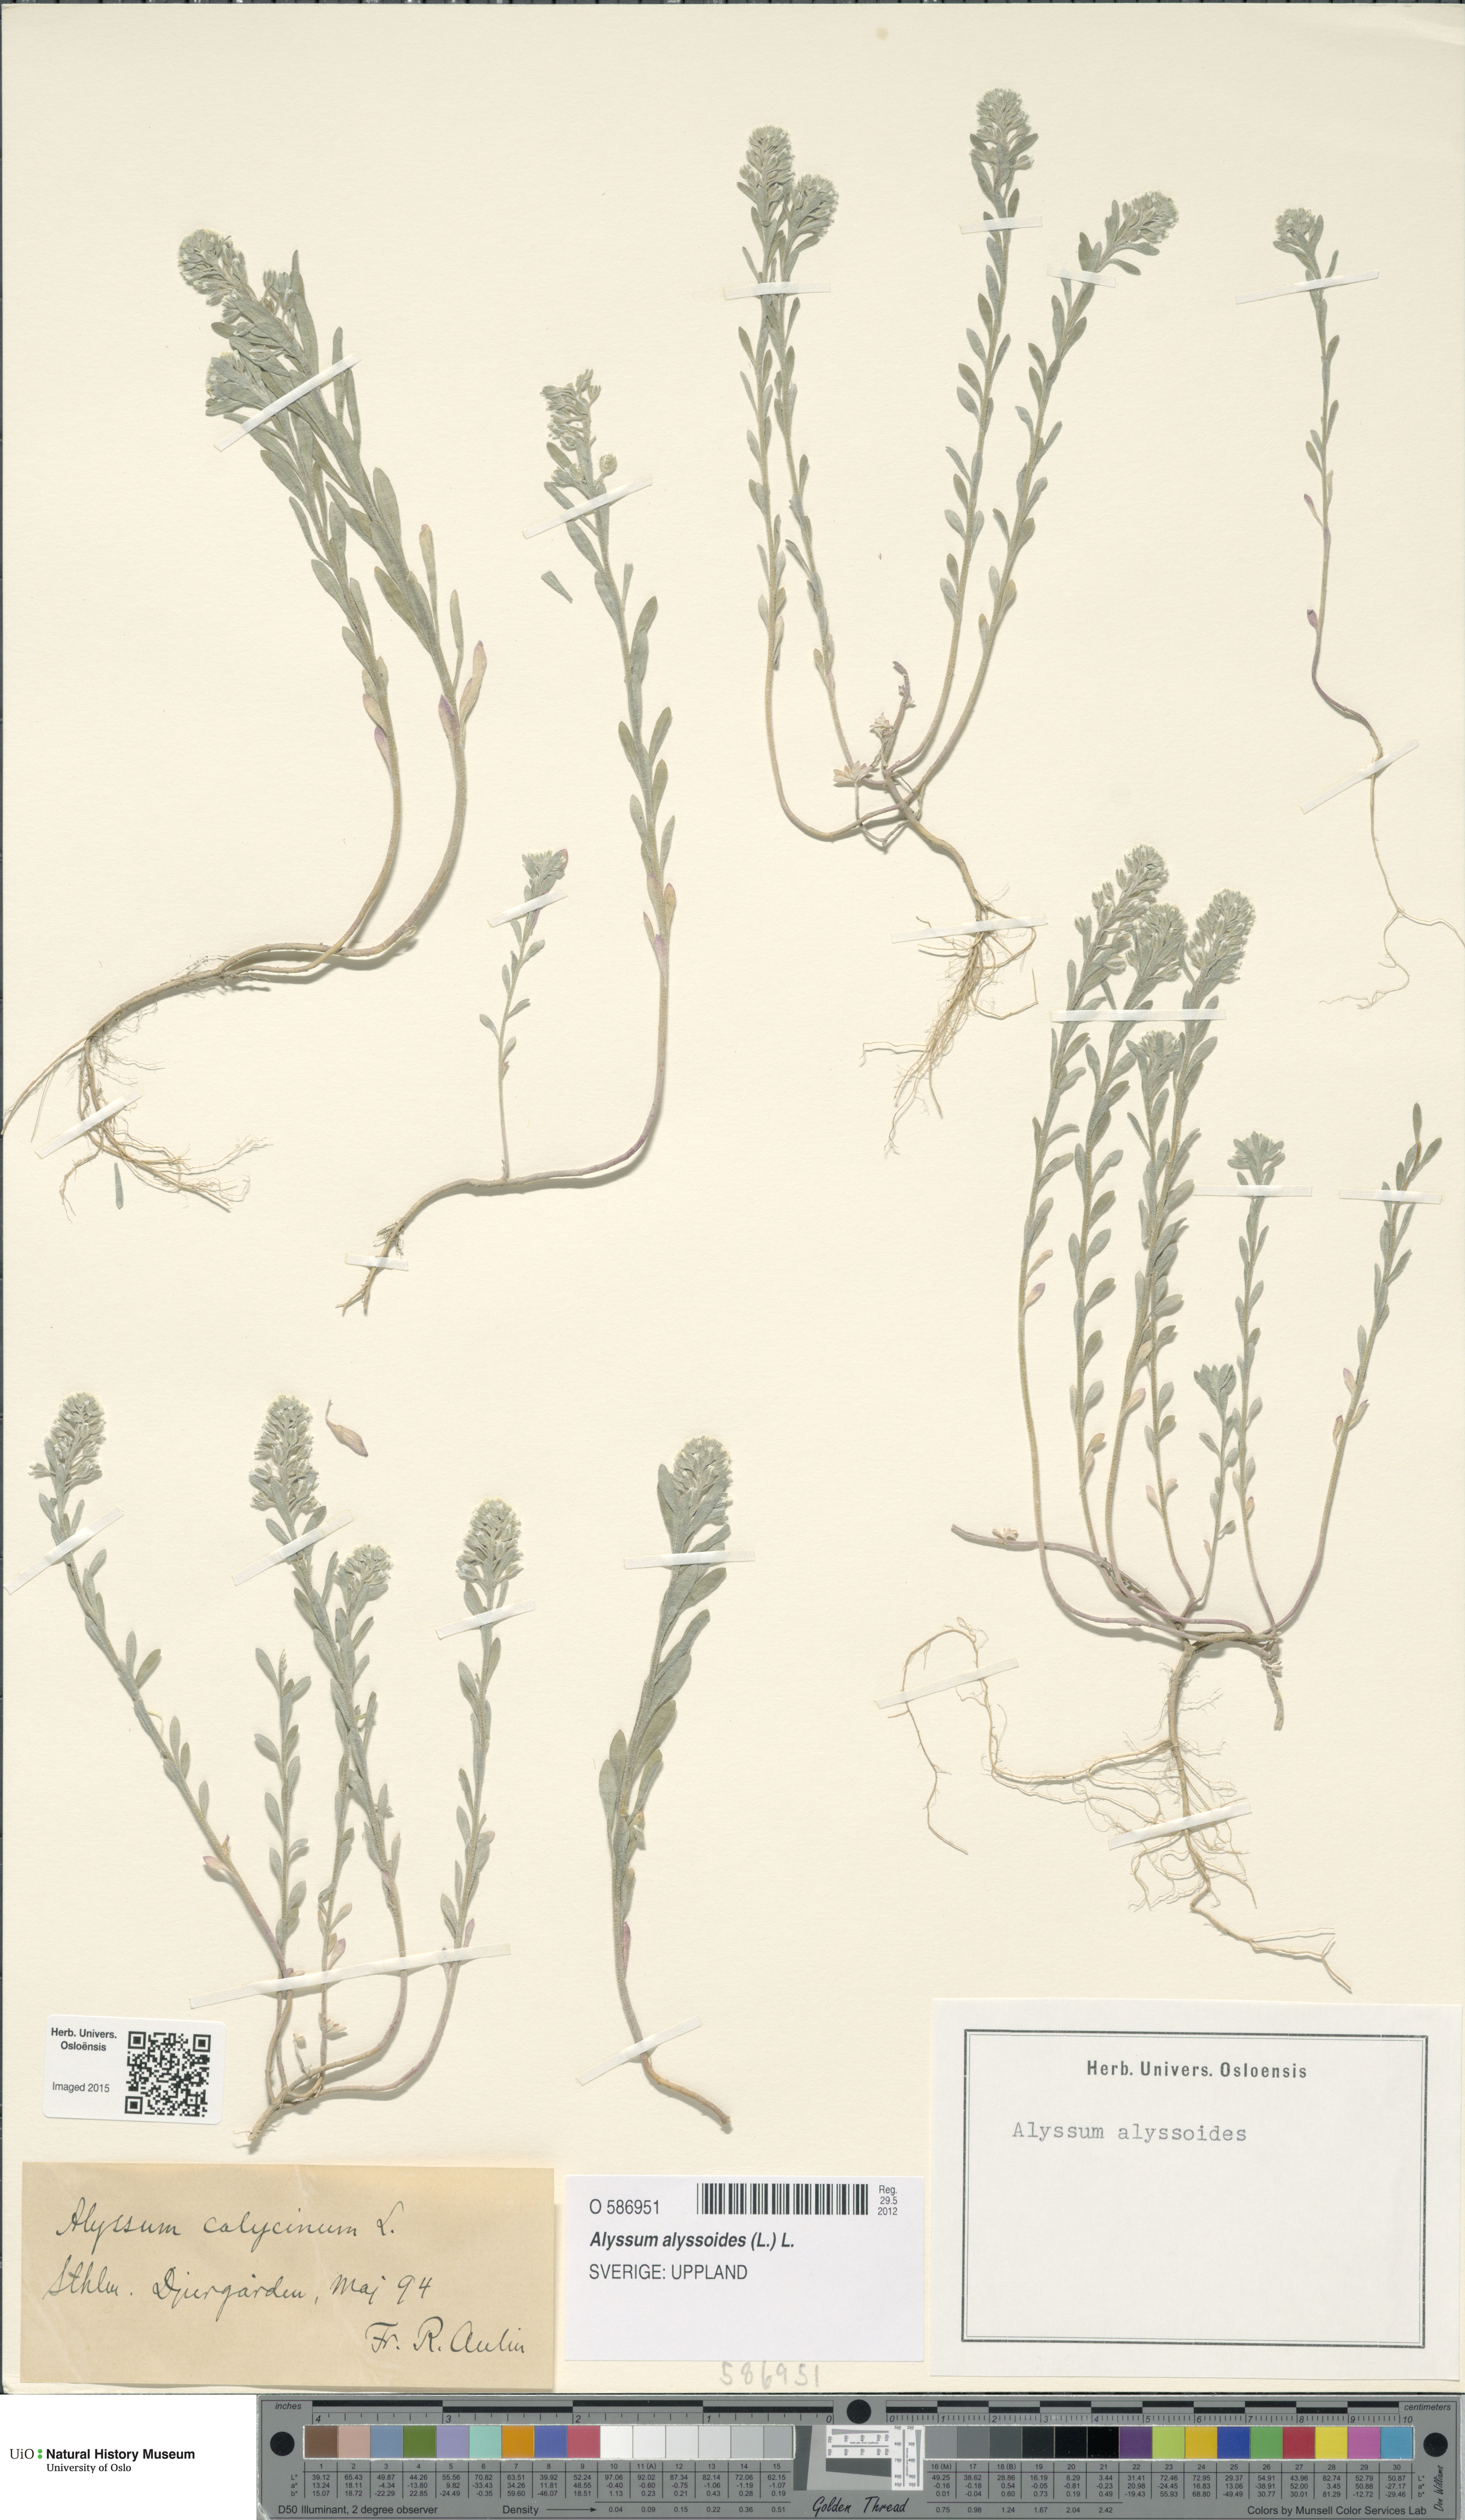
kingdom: Plantae
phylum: Tracheophyta
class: Magnoliopsida
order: Brassicales
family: Brassicaceae
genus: Alyssum
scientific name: Alyssum alyssoides
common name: Small alison
